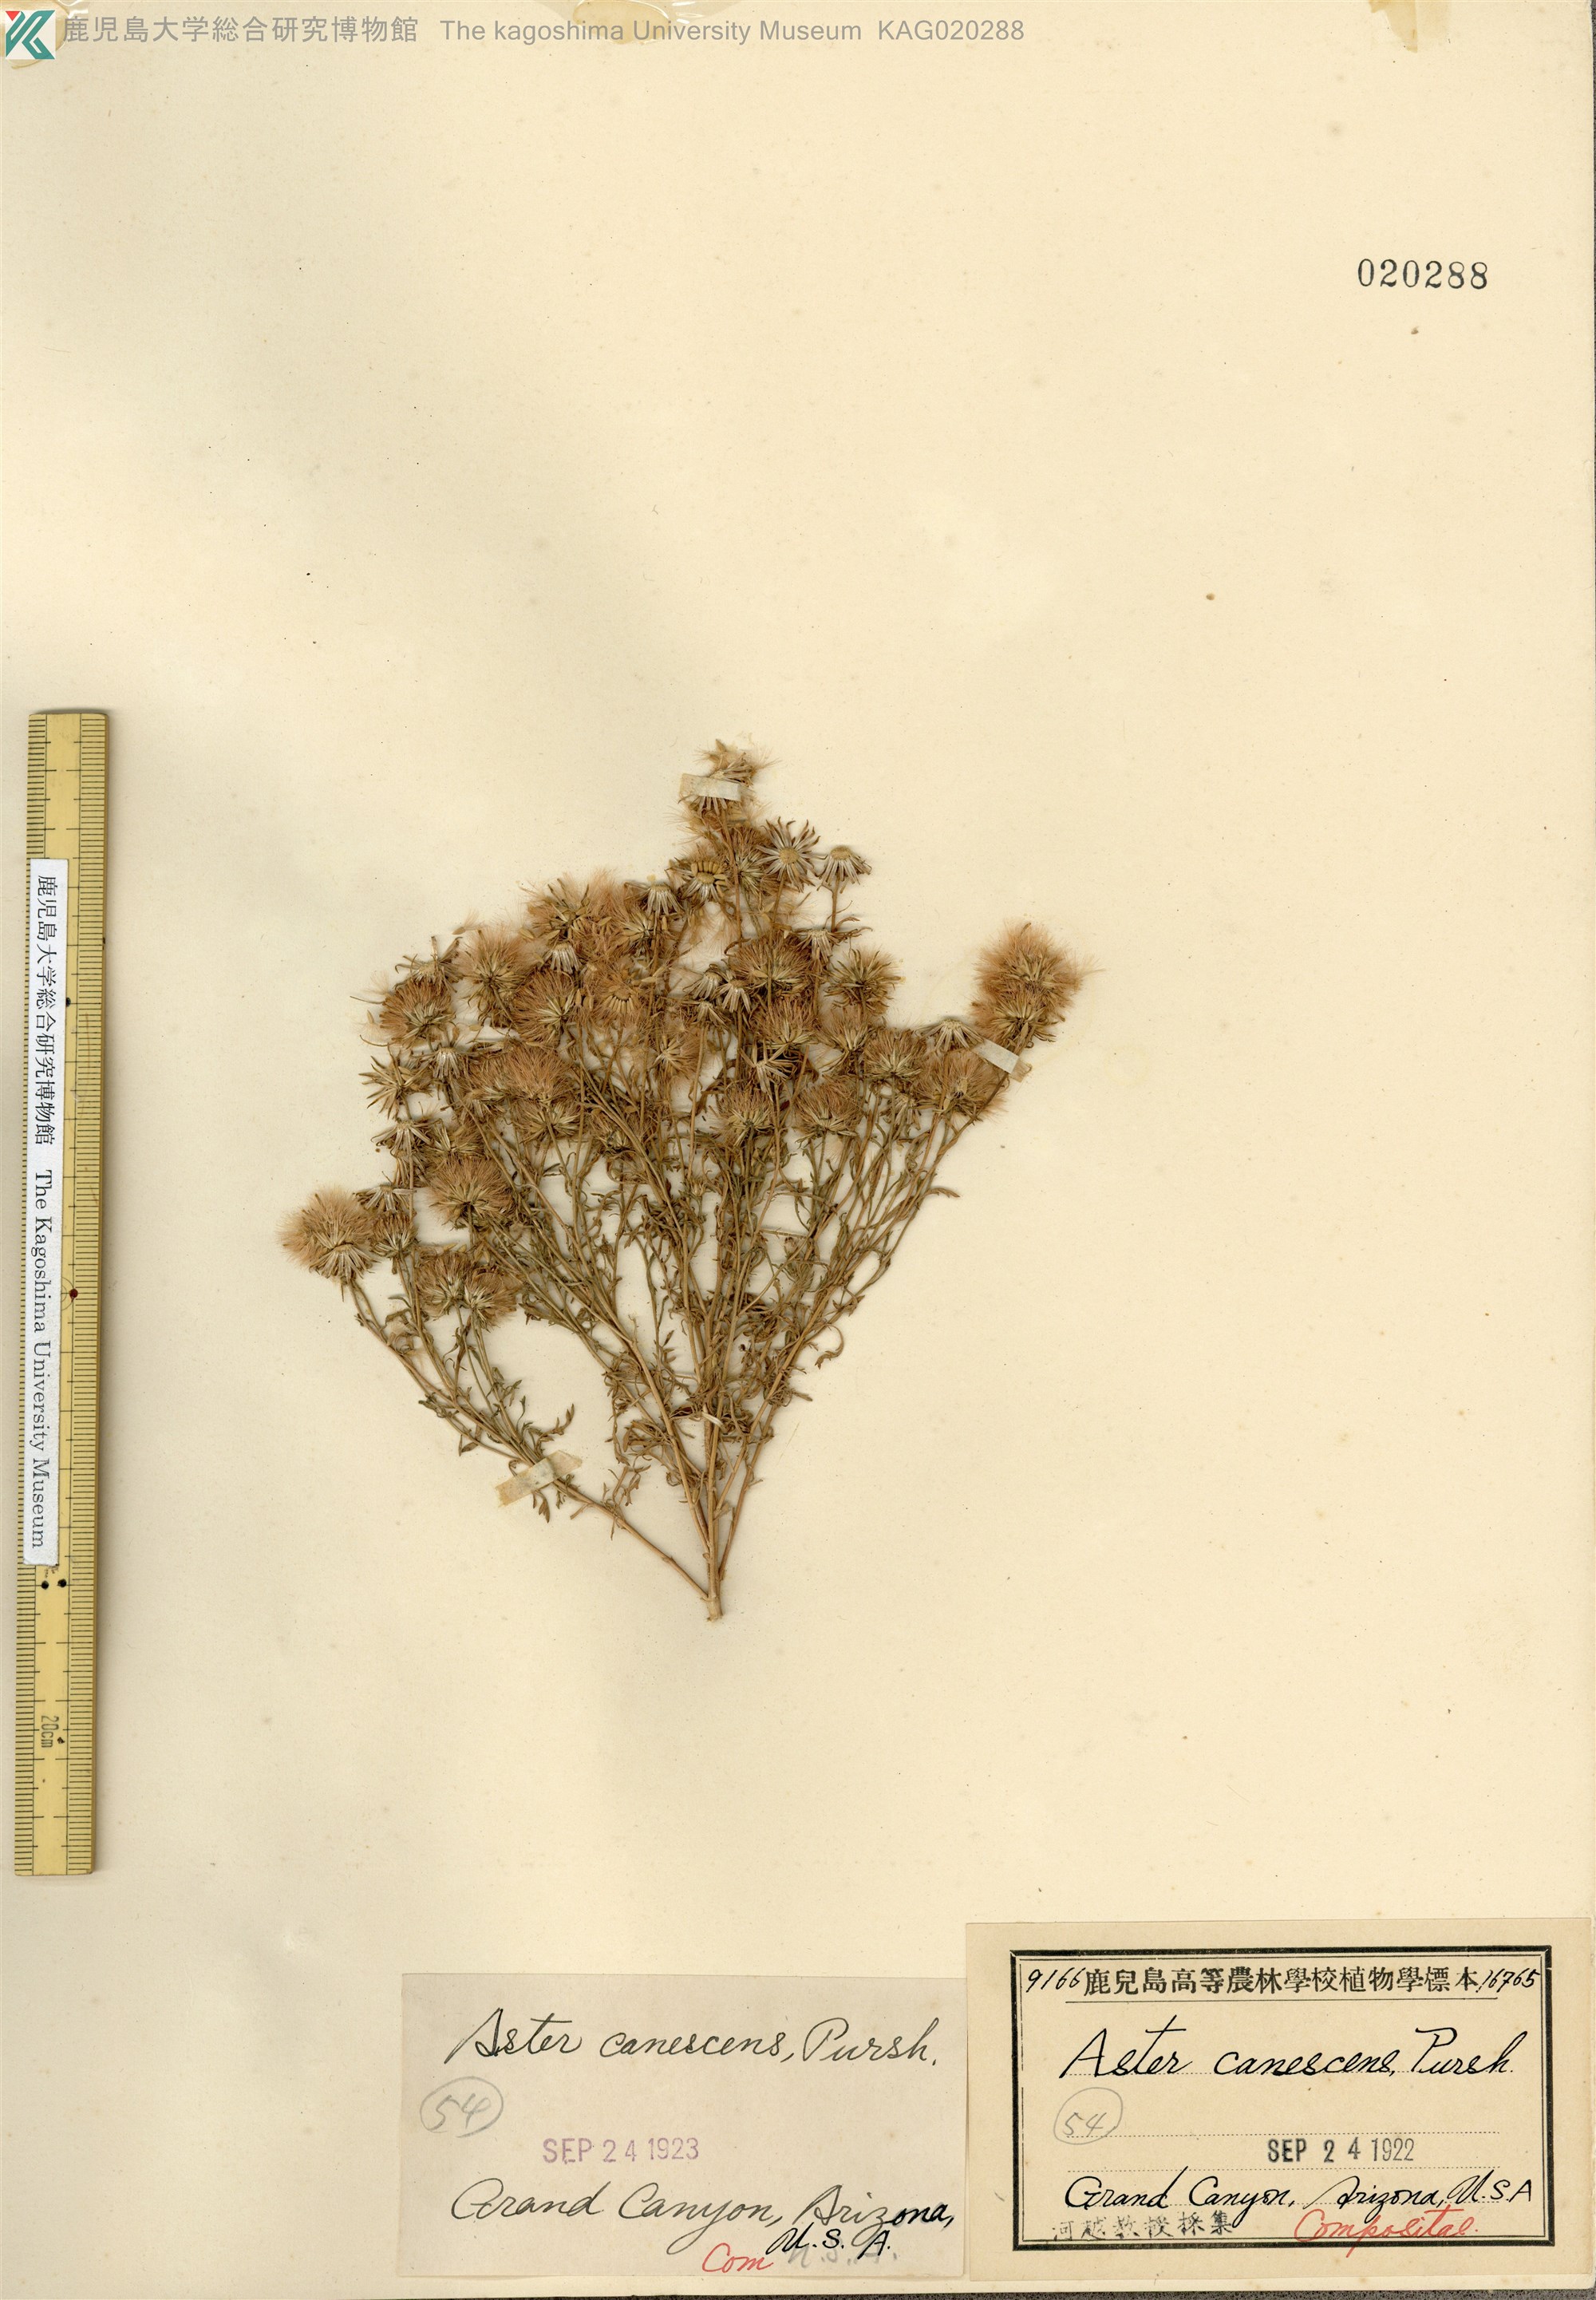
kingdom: Plantae
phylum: Tracheophyta
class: Magnoliopsida
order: Asterales
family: Asteraceae
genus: Dieteria
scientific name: Dieteria canescens
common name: Hoary-aster
